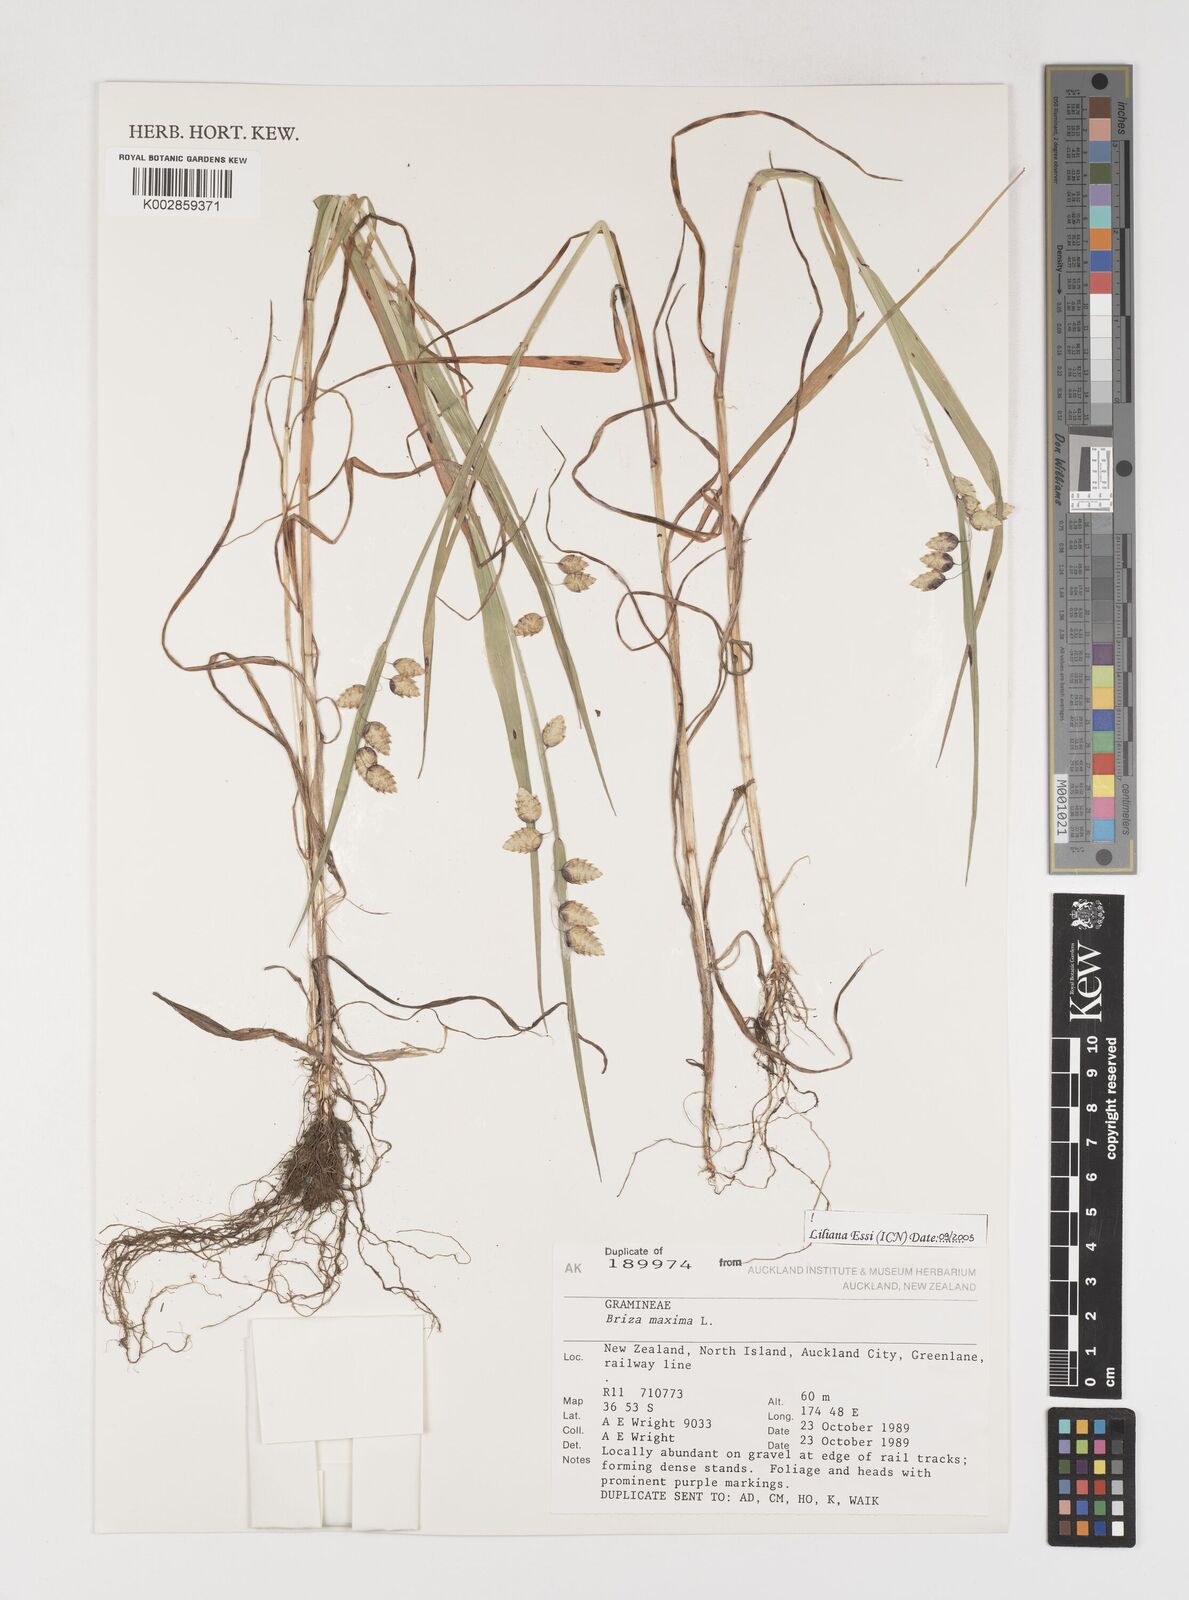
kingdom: Plantae
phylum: Tracheophyta
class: Liliopsida
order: Poales
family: Poaceae
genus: Briza
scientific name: Briza maxima
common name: Big quakinggrass
